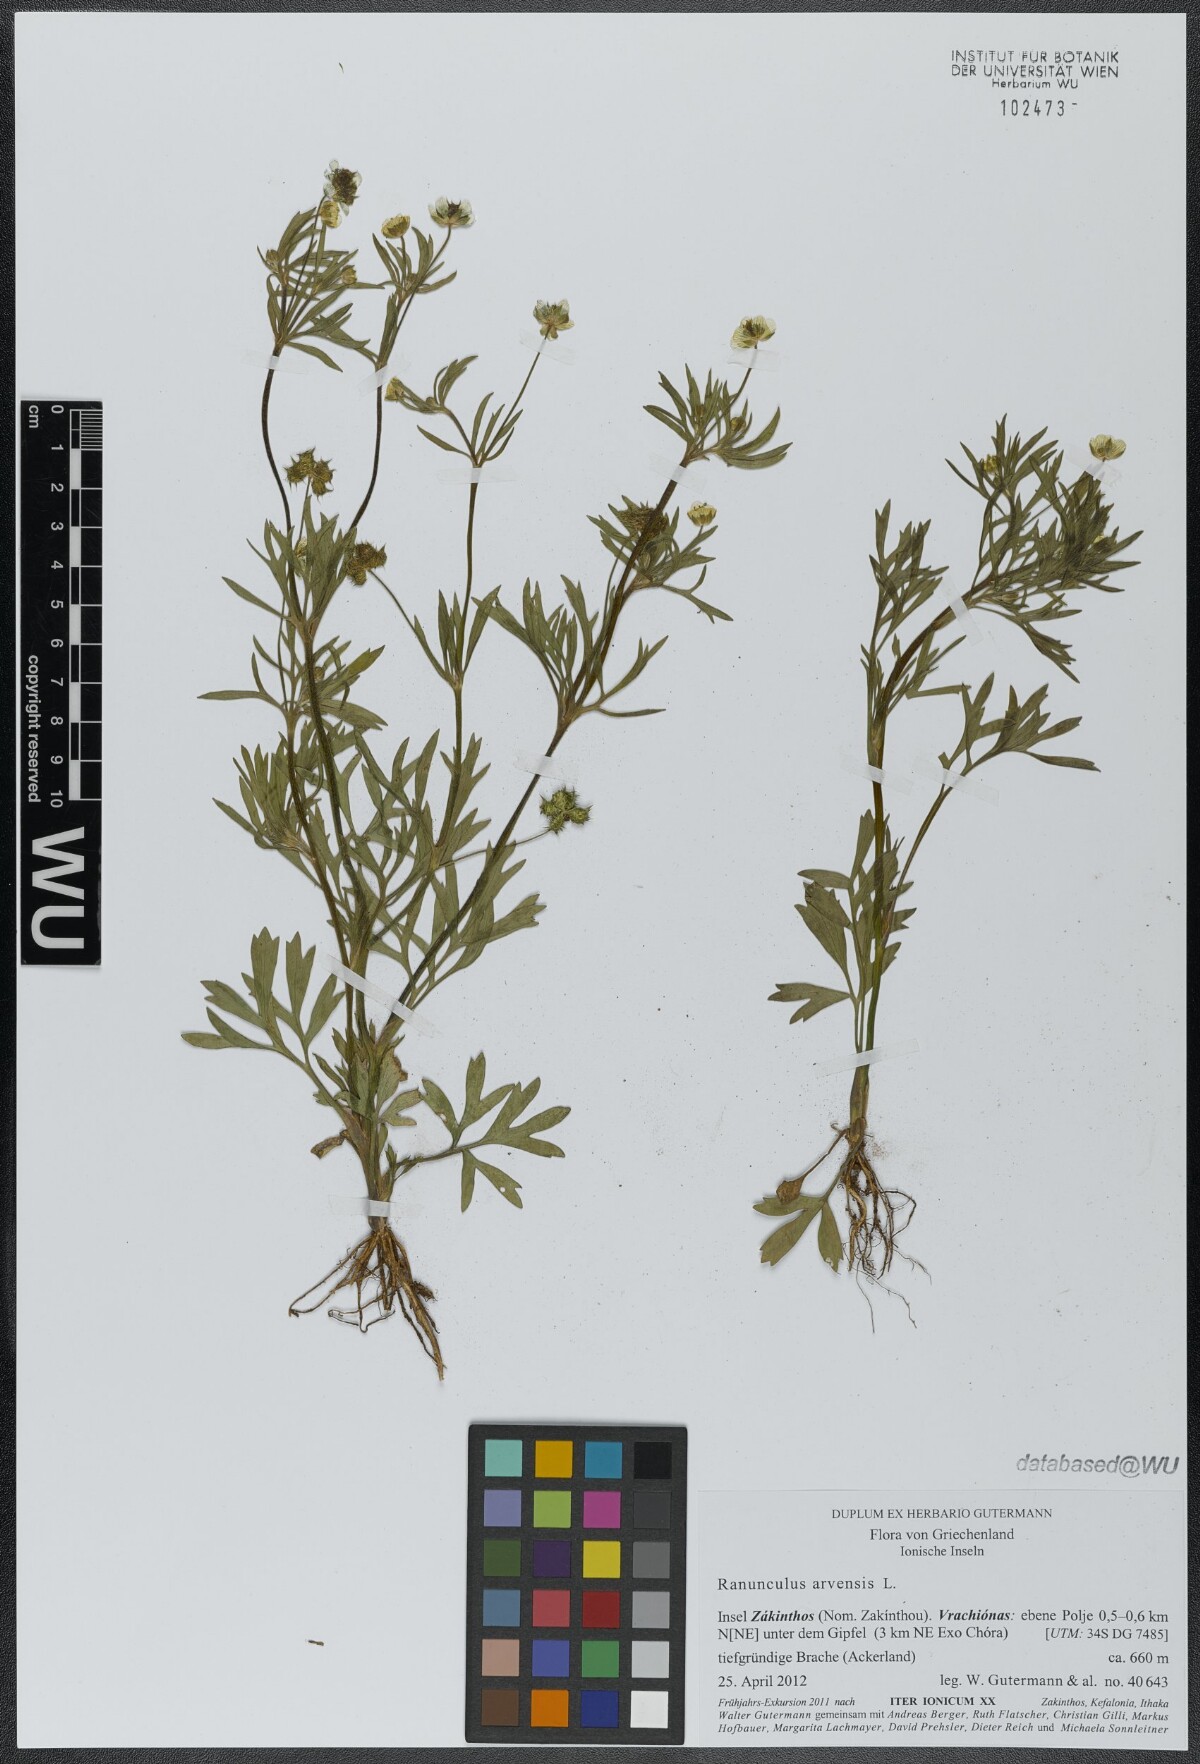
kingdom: Plantae
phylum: Tracheophyta
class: Magnoliopsida
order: Ranunculales
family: Ranunculaceae
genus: Ranunculus
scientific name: Ranunculus arvensis
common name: Corn buttercup
